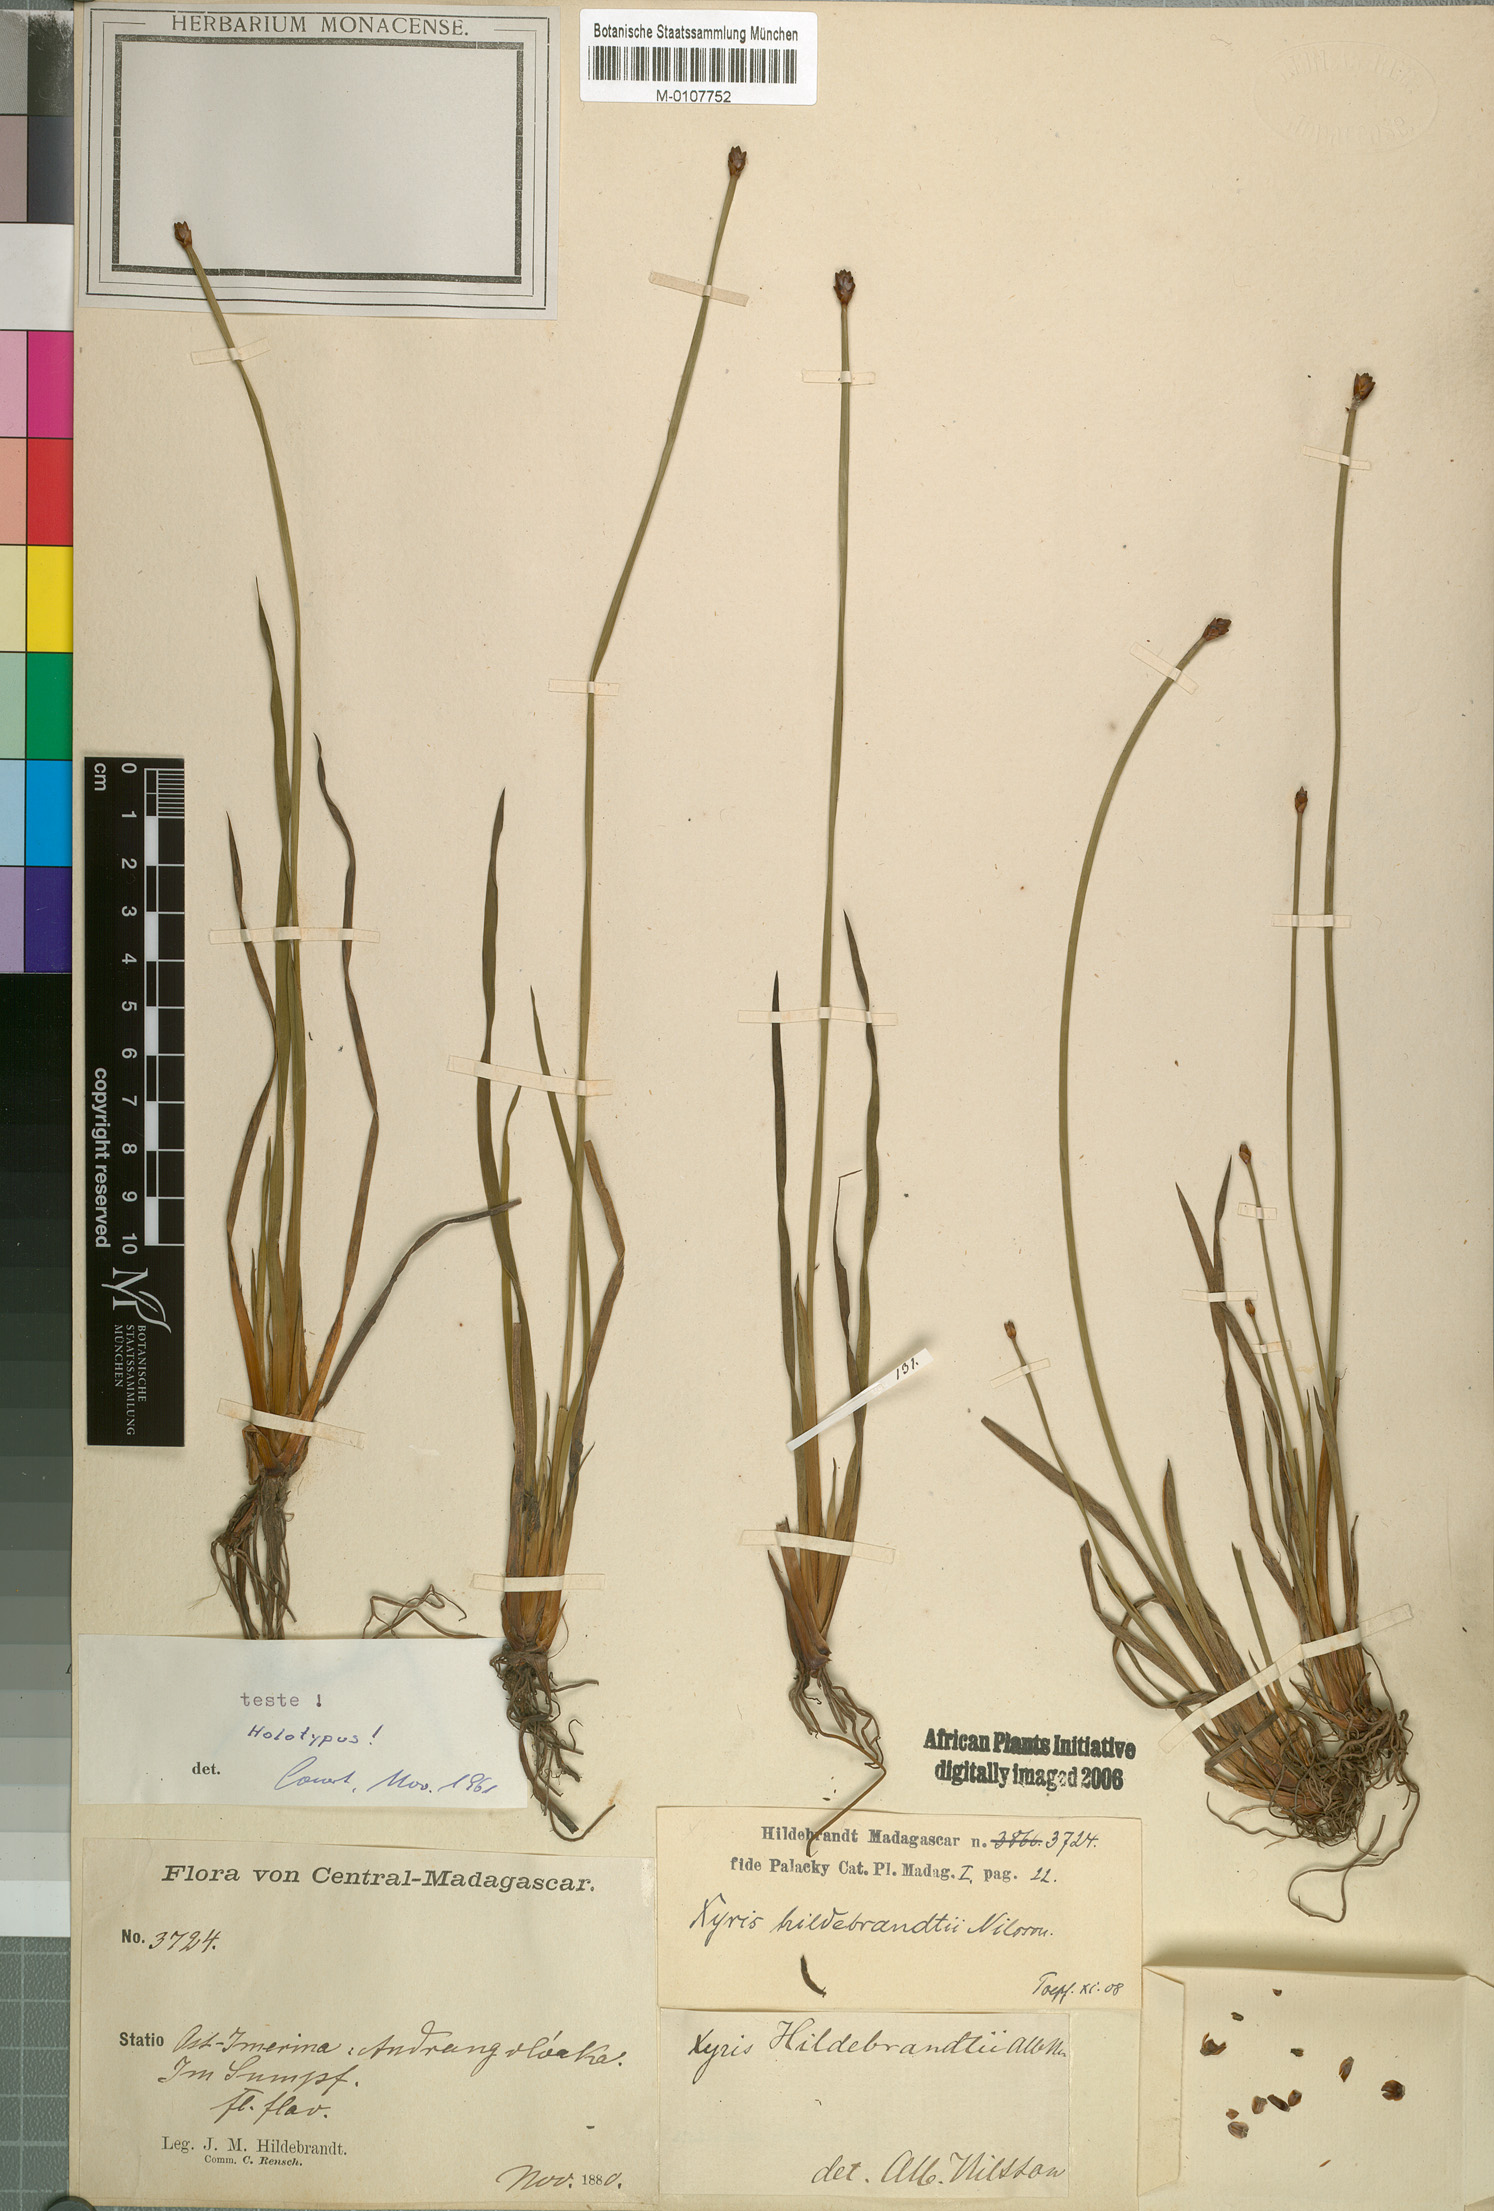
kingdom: Plantae
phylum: Tracheophyta
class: Liliopsida
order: Poales
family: Xyridaceae
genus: Xyris
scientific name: Xyris congensis
